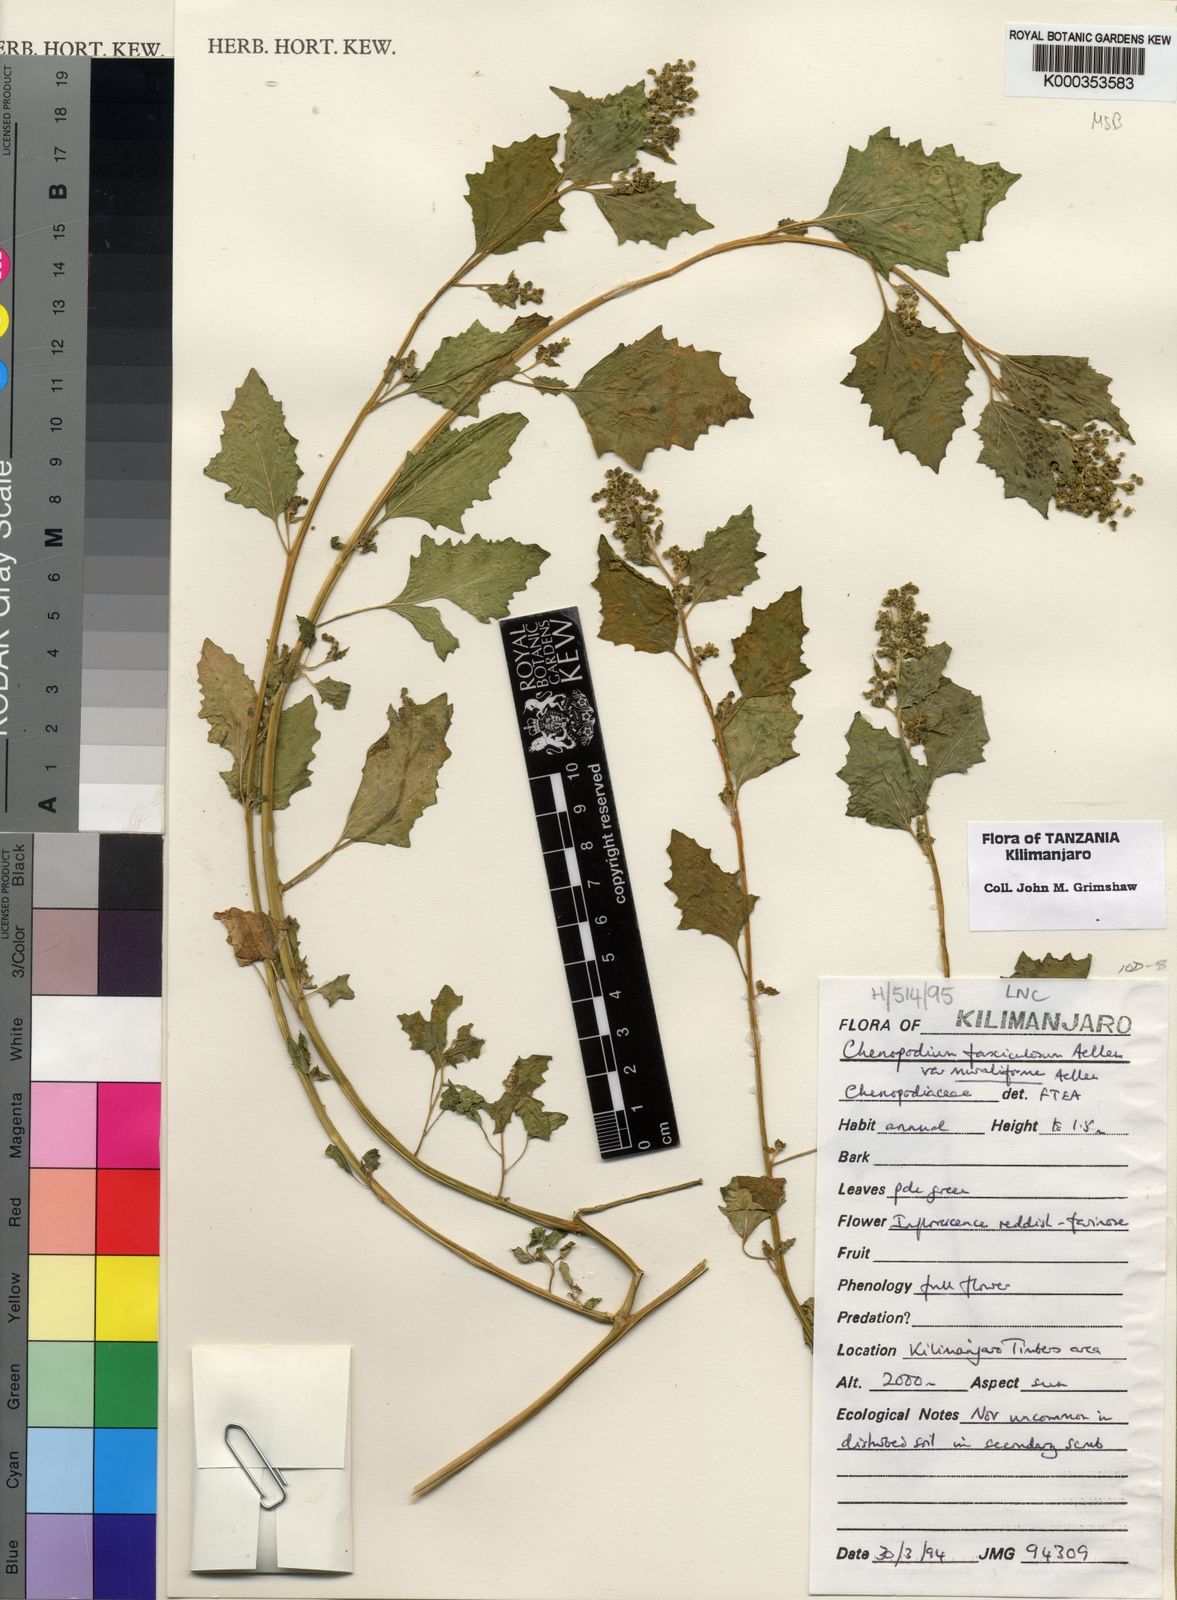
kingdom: Plantae
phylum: Tracheophyta
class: Magnoliopsida
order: Caryophyllales
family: Amaranthaceae
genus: Chenopodiastrum
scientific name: Chenopodiastrum fasciculosum
